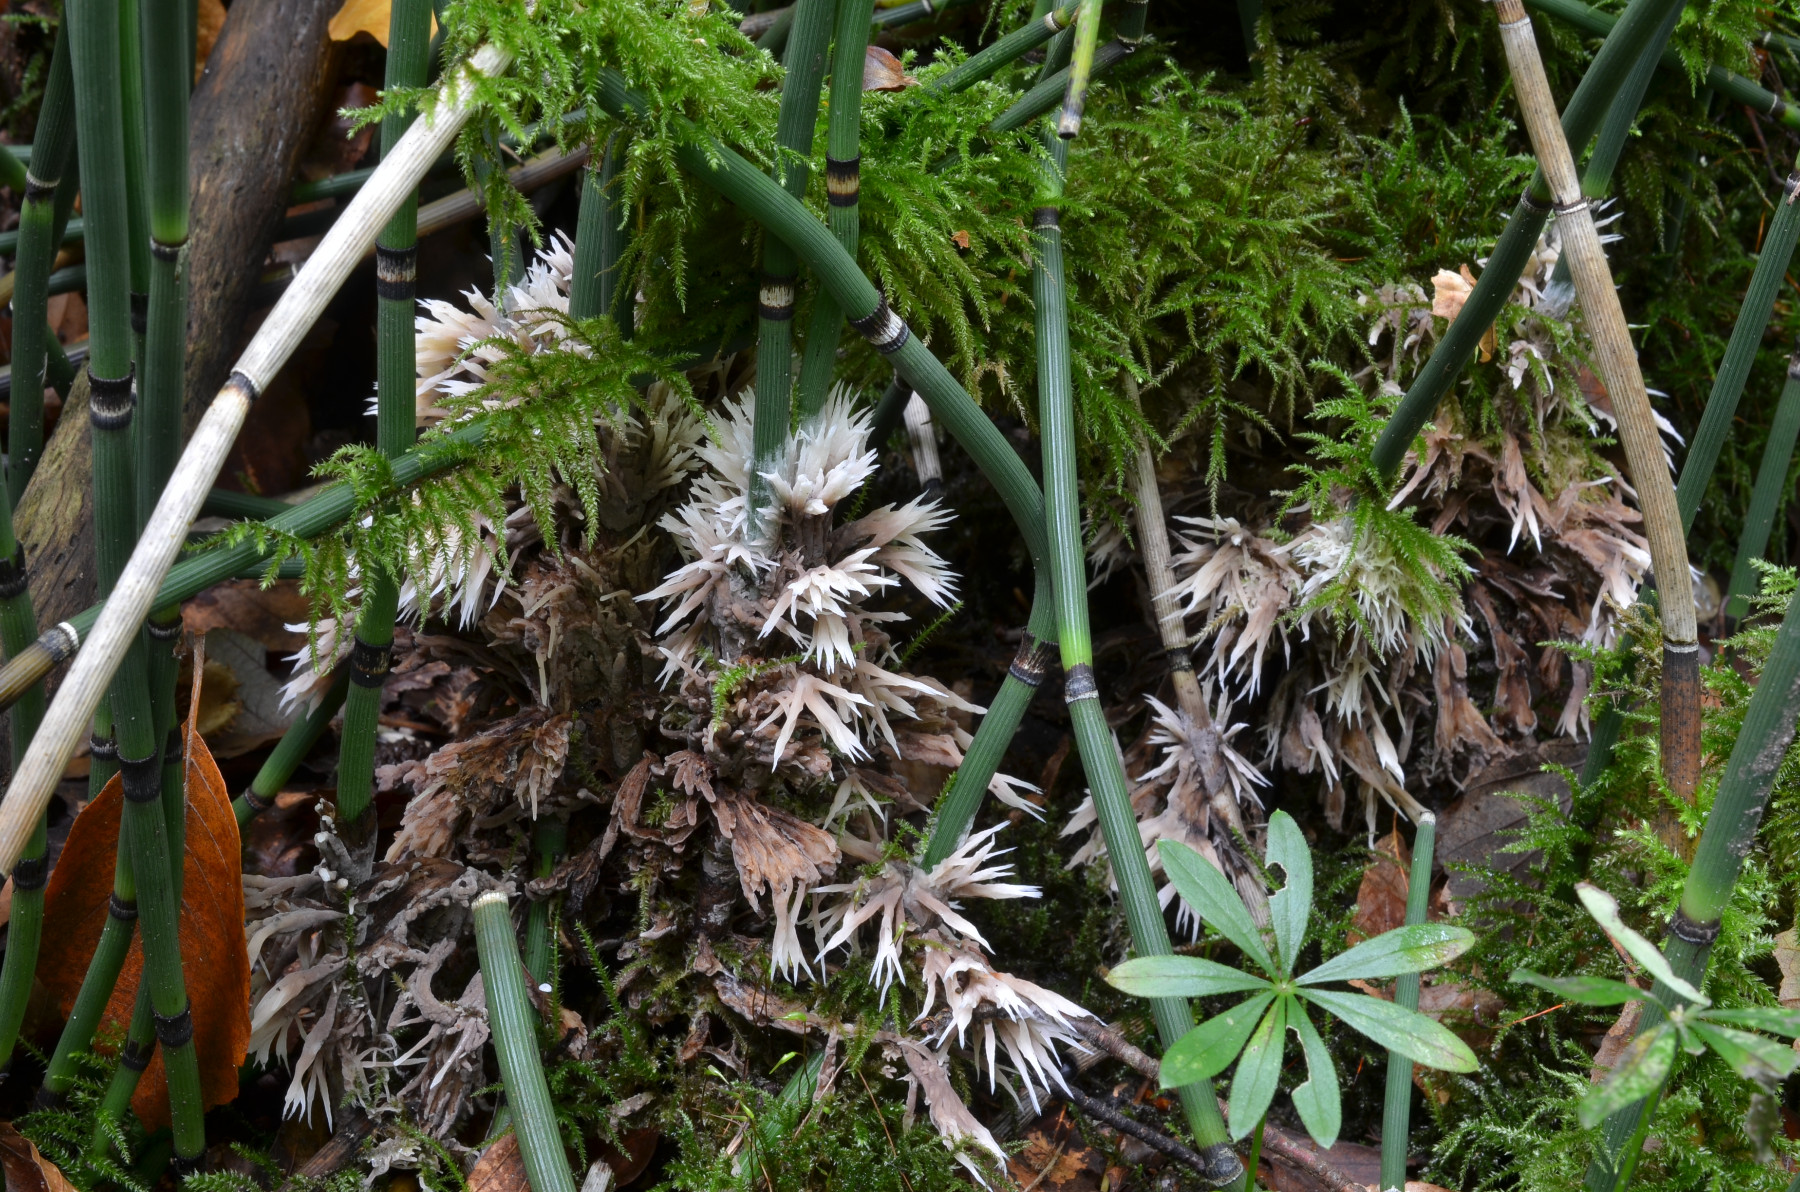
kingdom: Fungi
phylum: Basidiomycota
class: Agaricomycetes
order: Thelephorales
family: Thelephoraceae
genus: Thelephora
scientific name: Thelephora penicillata
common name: fladtrådt frynsesvamp
